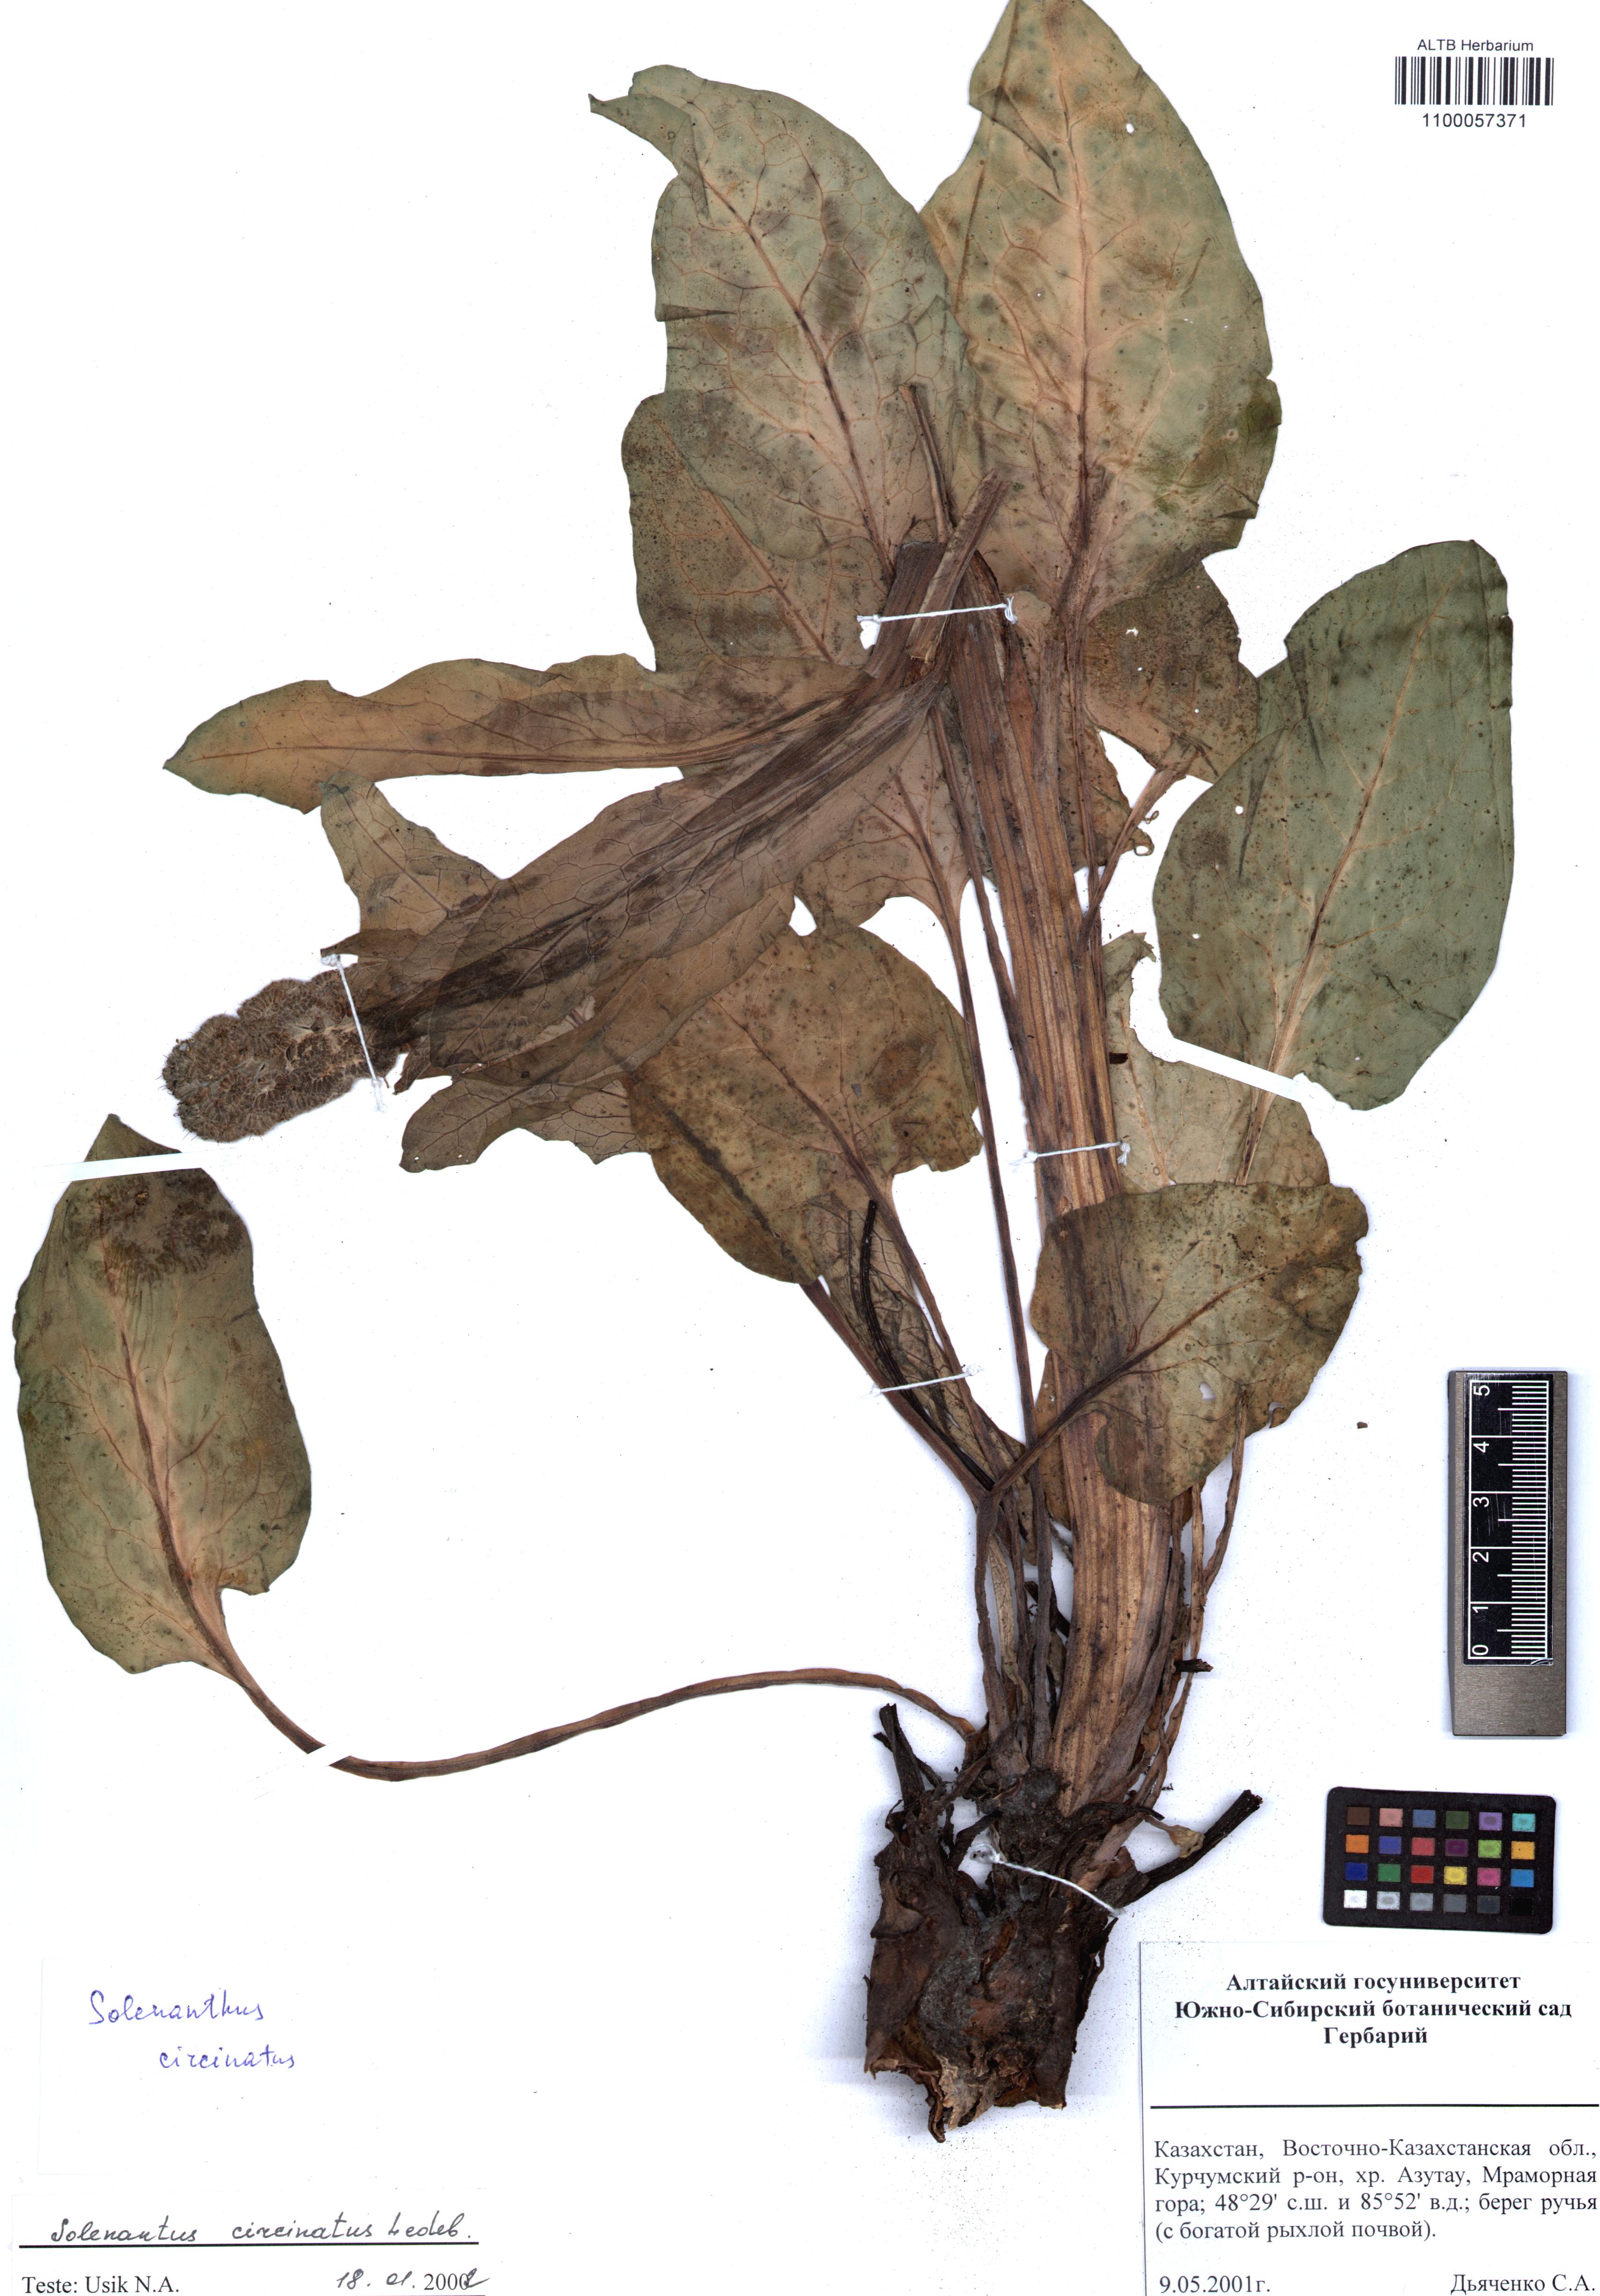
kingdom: Plantae
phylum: Tracheophyta
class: Magnoliopsida
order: Boraginales
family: Boraginaceae
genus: Solenanthus
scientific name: Solenanthus circinnatus
